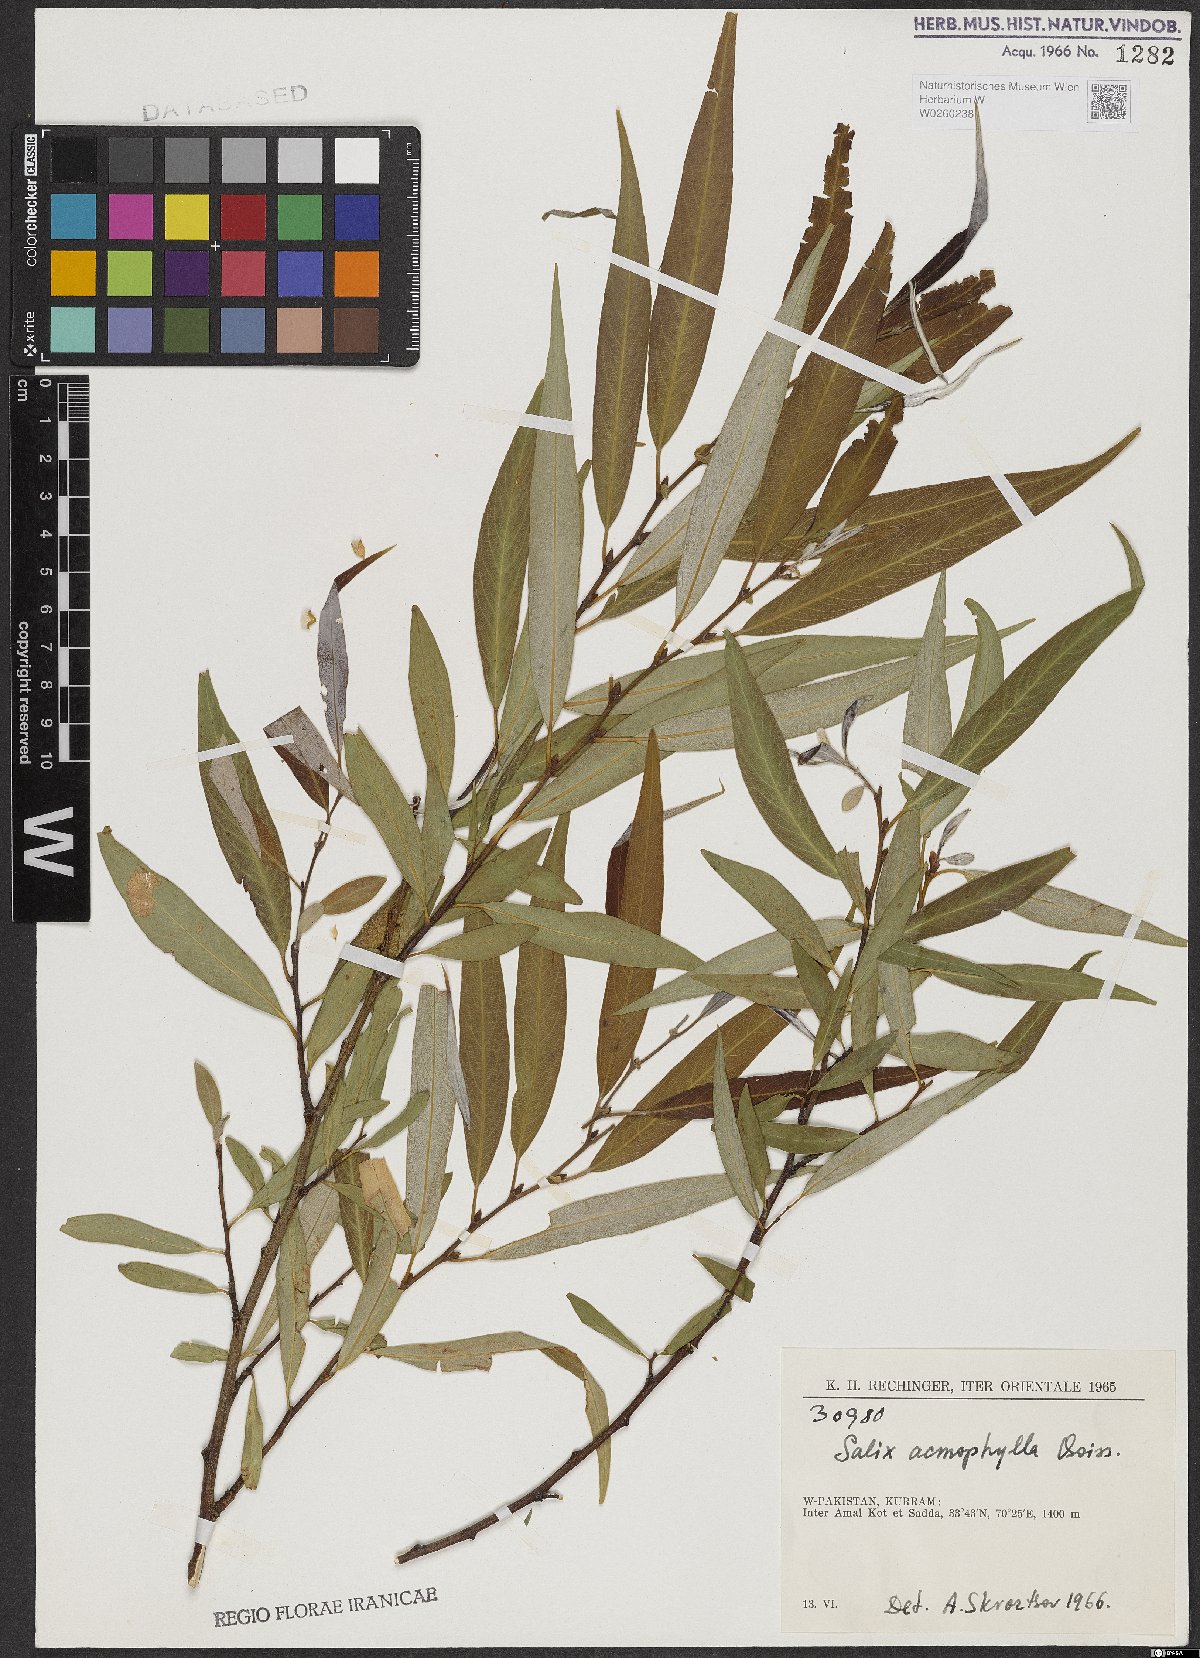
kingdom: Plantae
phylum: Tracheophyta
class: Magnoliopsida
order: Malpighiales
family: Salicaceae
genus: Salix
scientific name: Salix acmophylla
